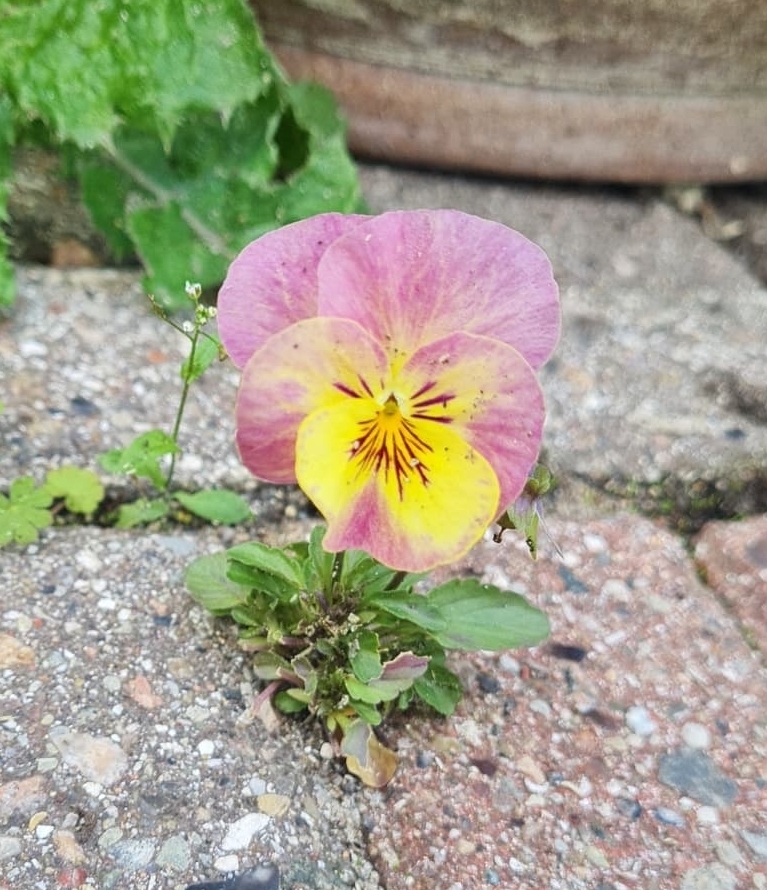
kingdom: Plantae
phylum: Tracheophyta
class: Magnoliopsida
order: Malpighiales
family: Violaceae
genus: Viola
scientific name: Viola wittrockiana
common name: Have-stedmoderblomst
